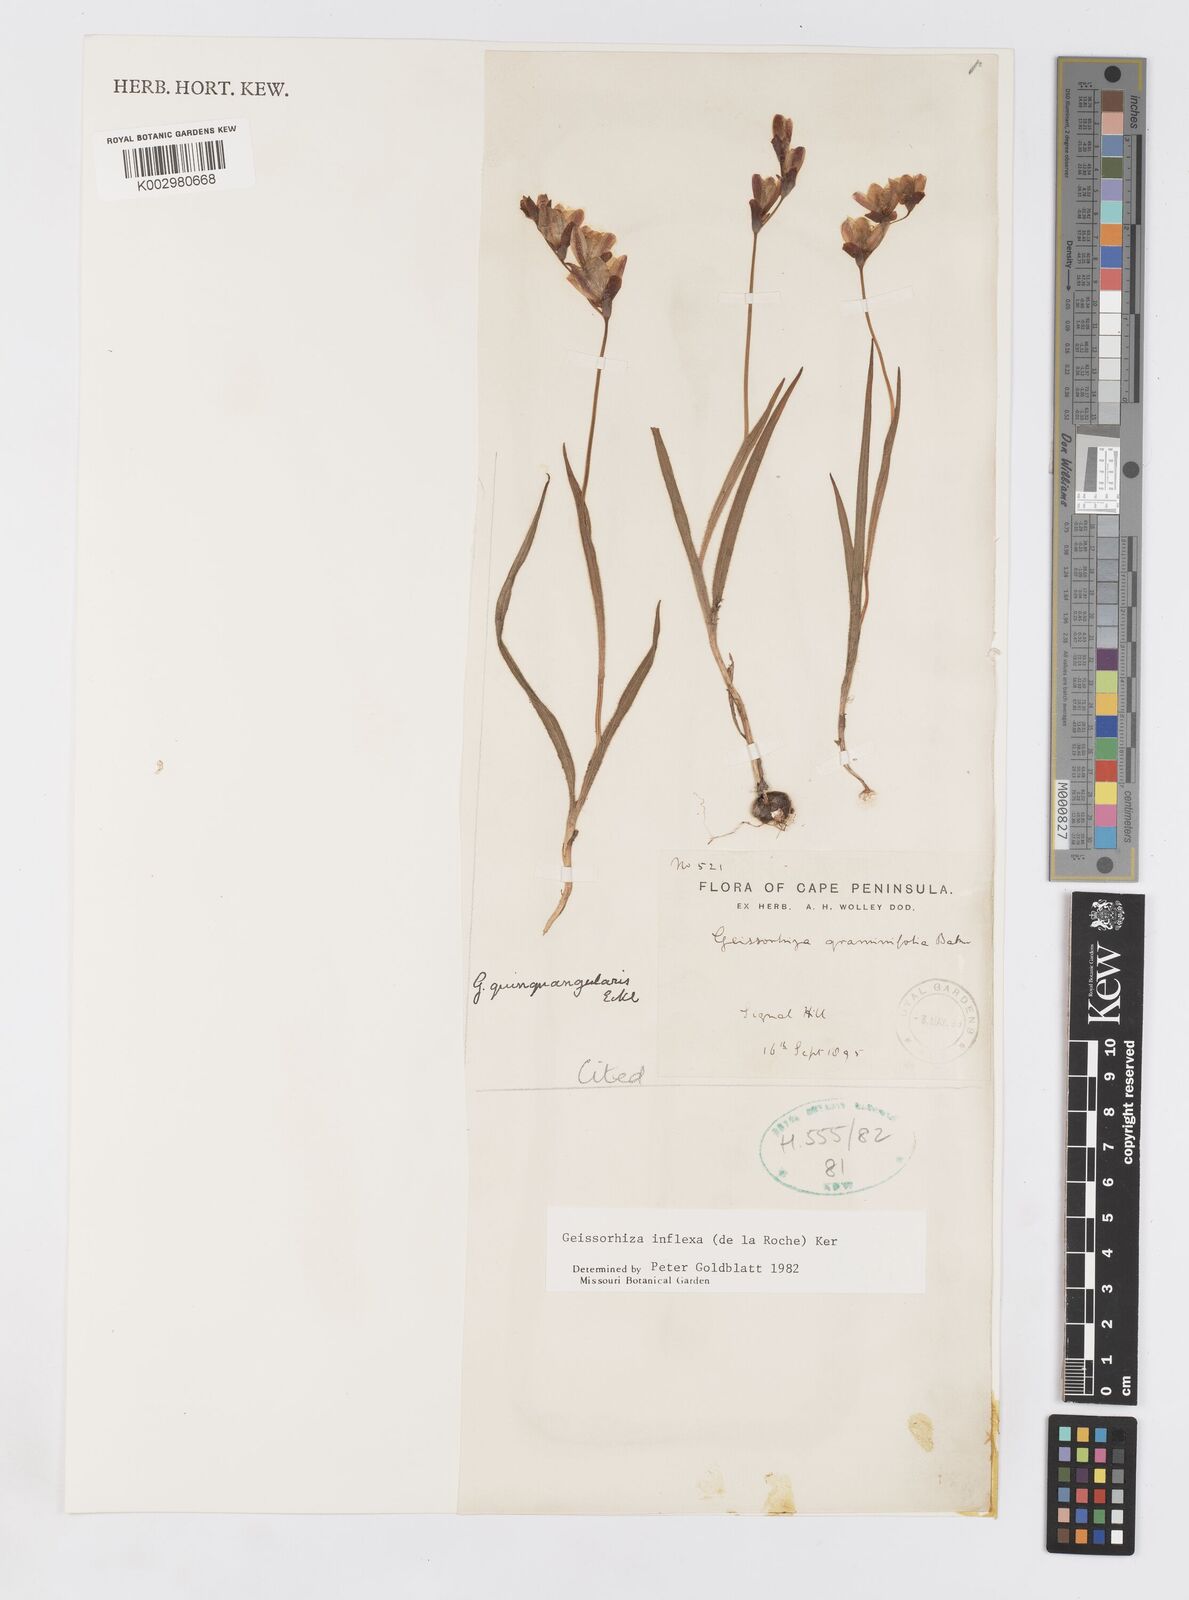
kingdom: Plantae
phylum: Tracheophyta
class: Liliopsida
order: Asparagales
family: Iridaceae
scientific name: Iridaceae
